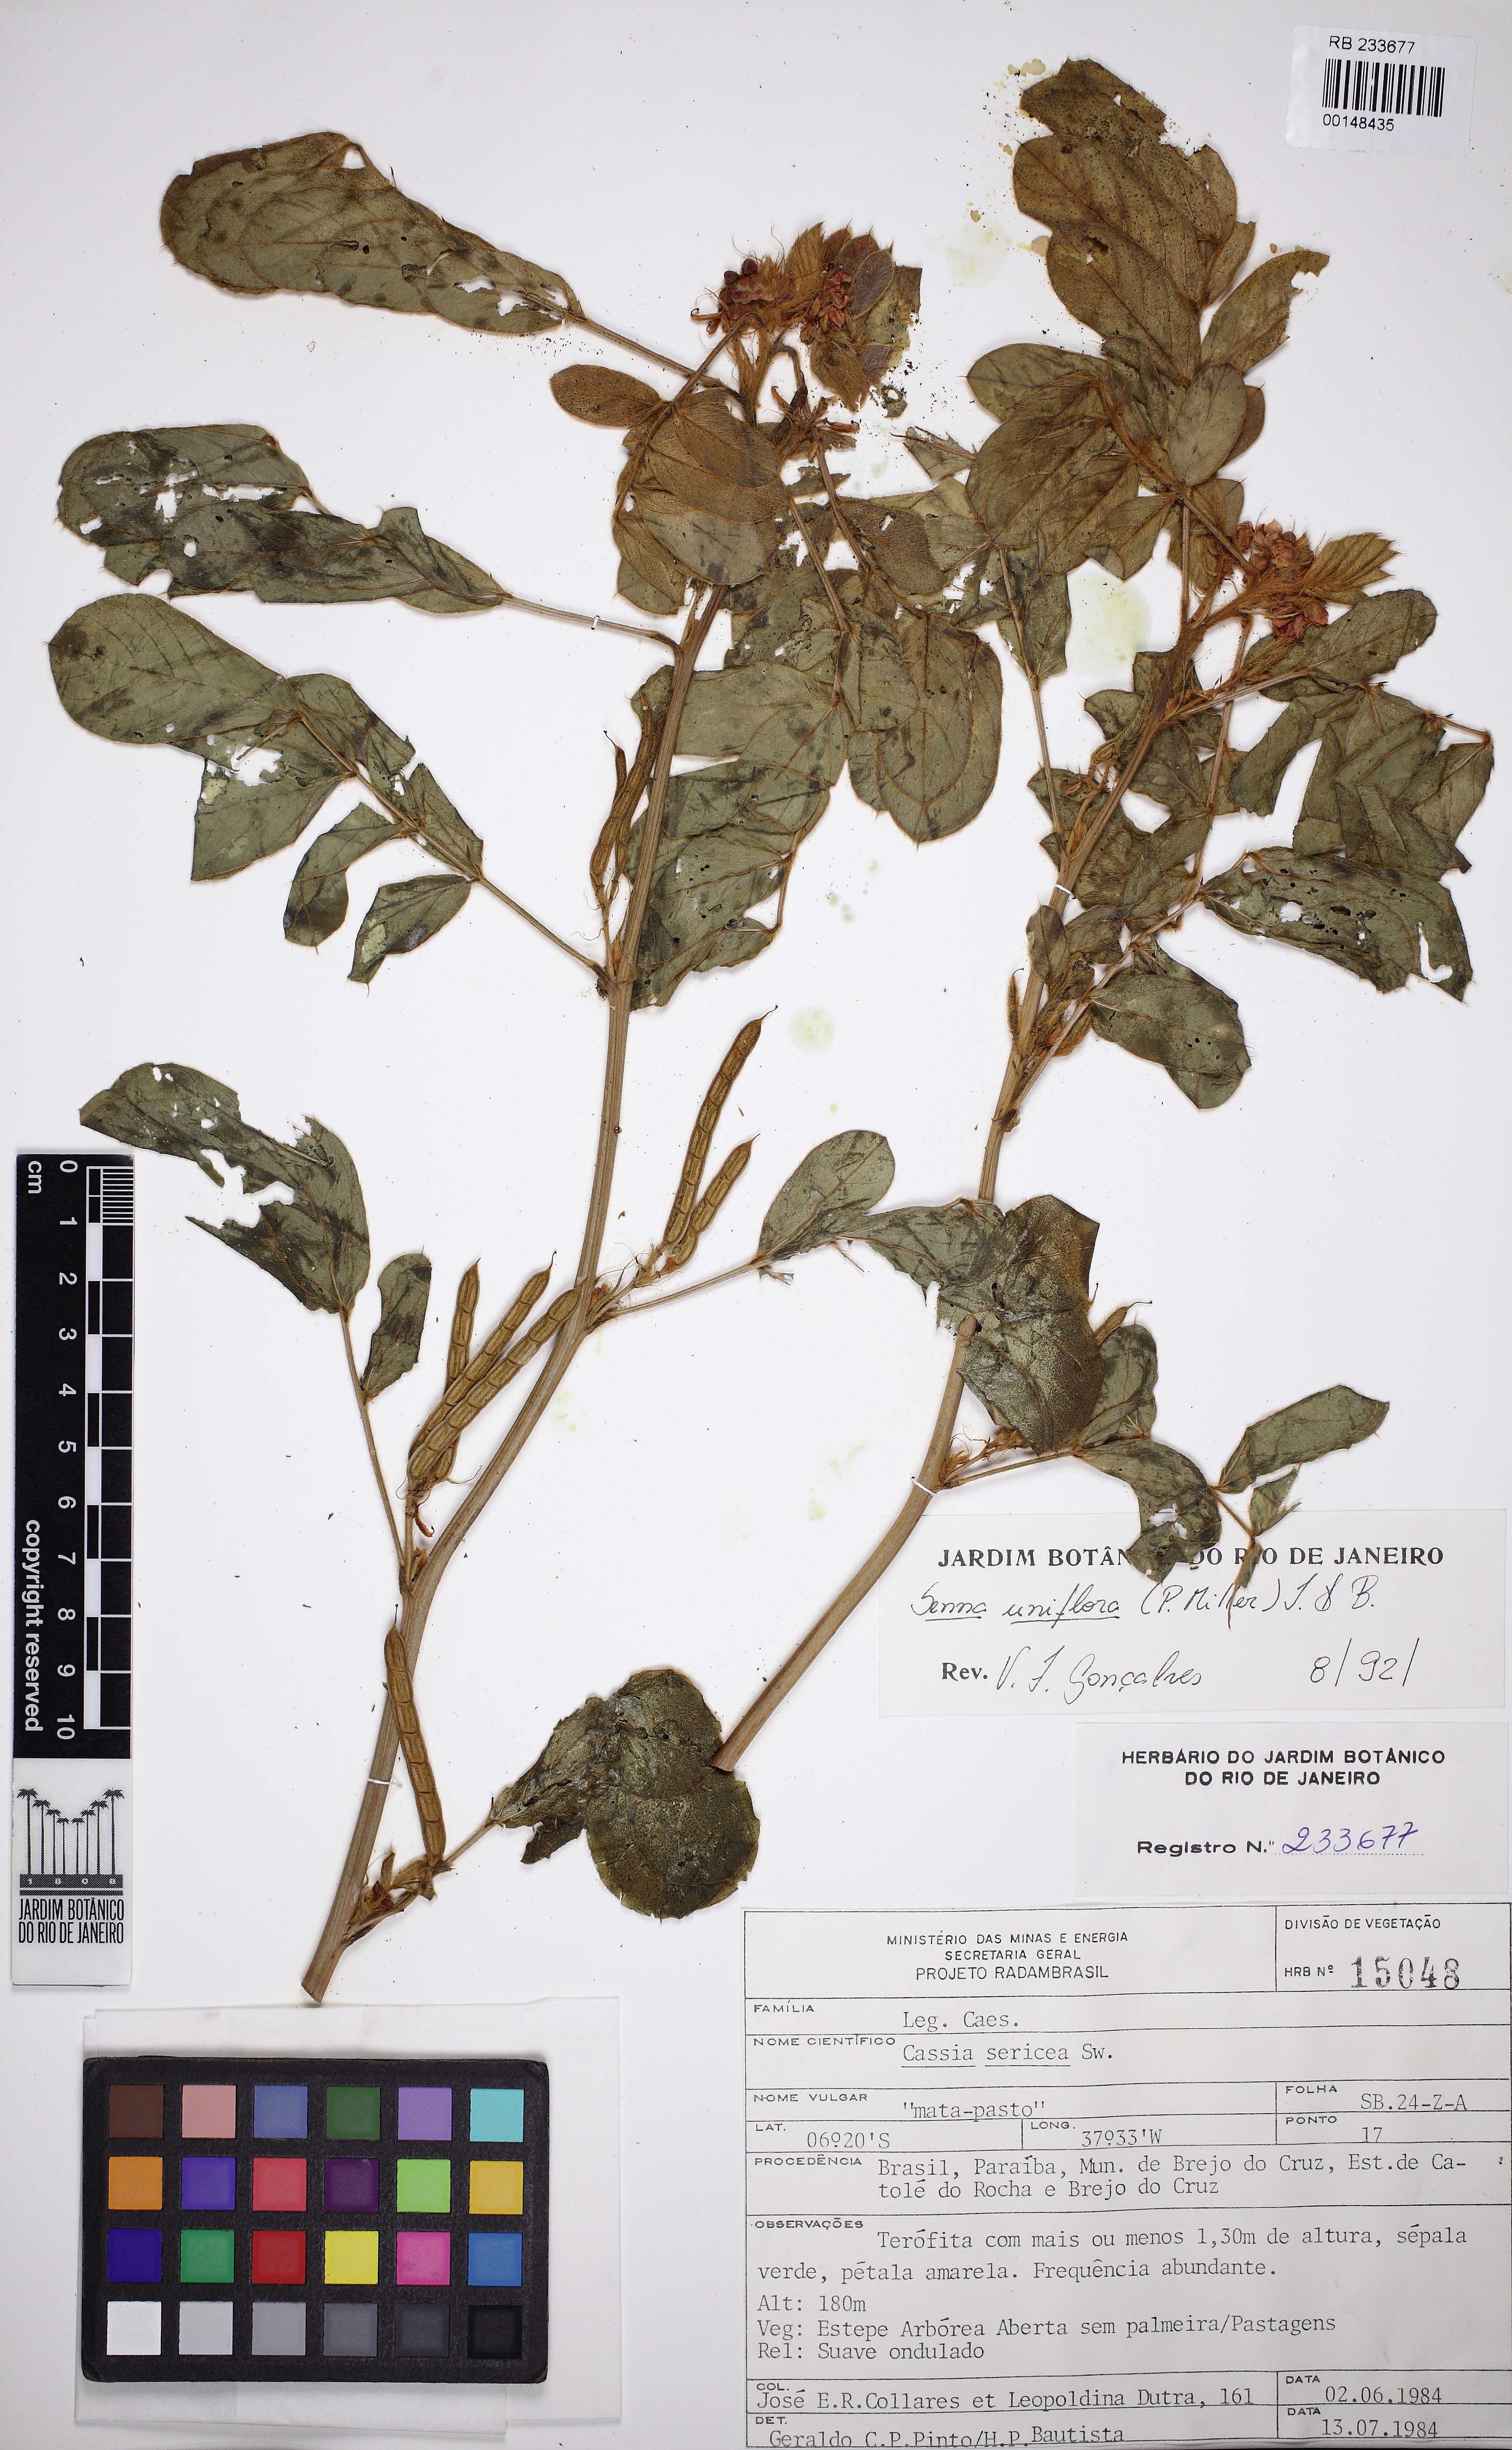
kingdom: Plantae
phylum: Tracheophyta
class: Magnoliopsida
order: Fabales
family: Fabaceae
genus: Senna
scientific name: Senna uniflora
